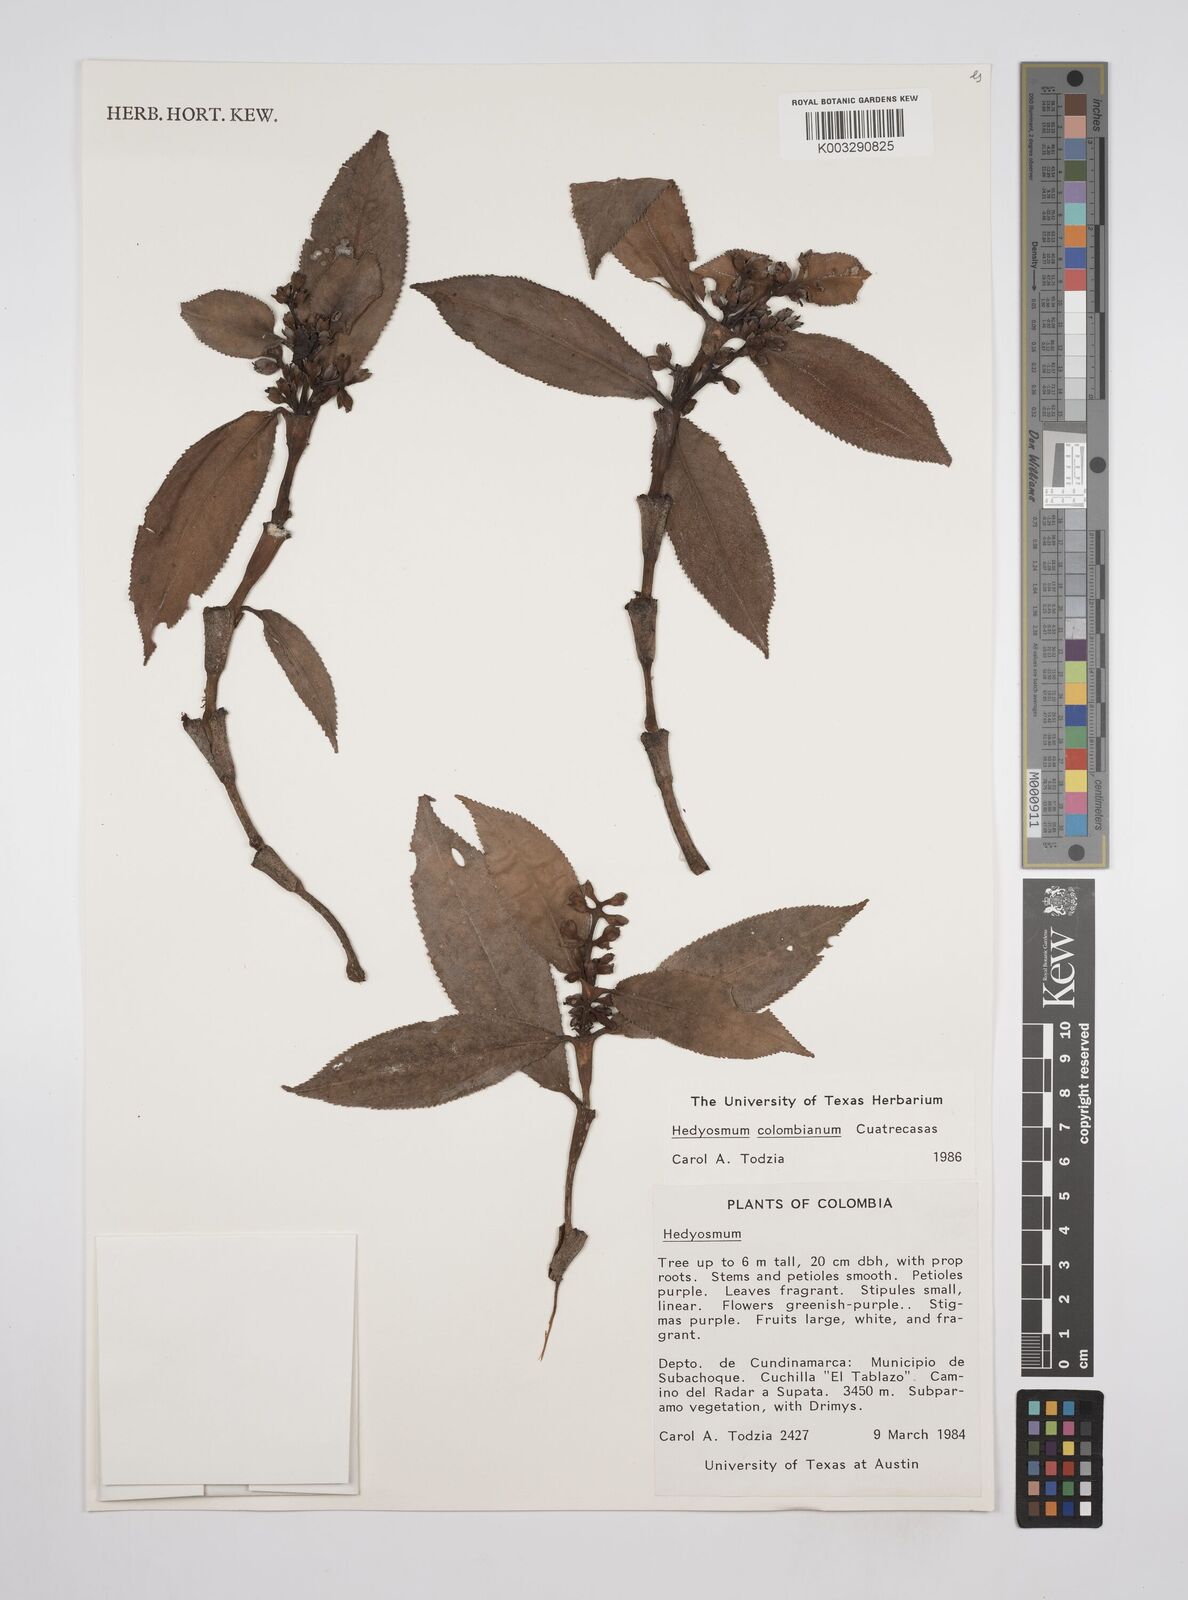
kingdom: Plantae
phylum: Tracheophyta
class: Magnoliopsida
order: Chloranthales
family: Chloranthaceae
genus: Hedyosmum
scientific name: Hedyosmum colombianum
